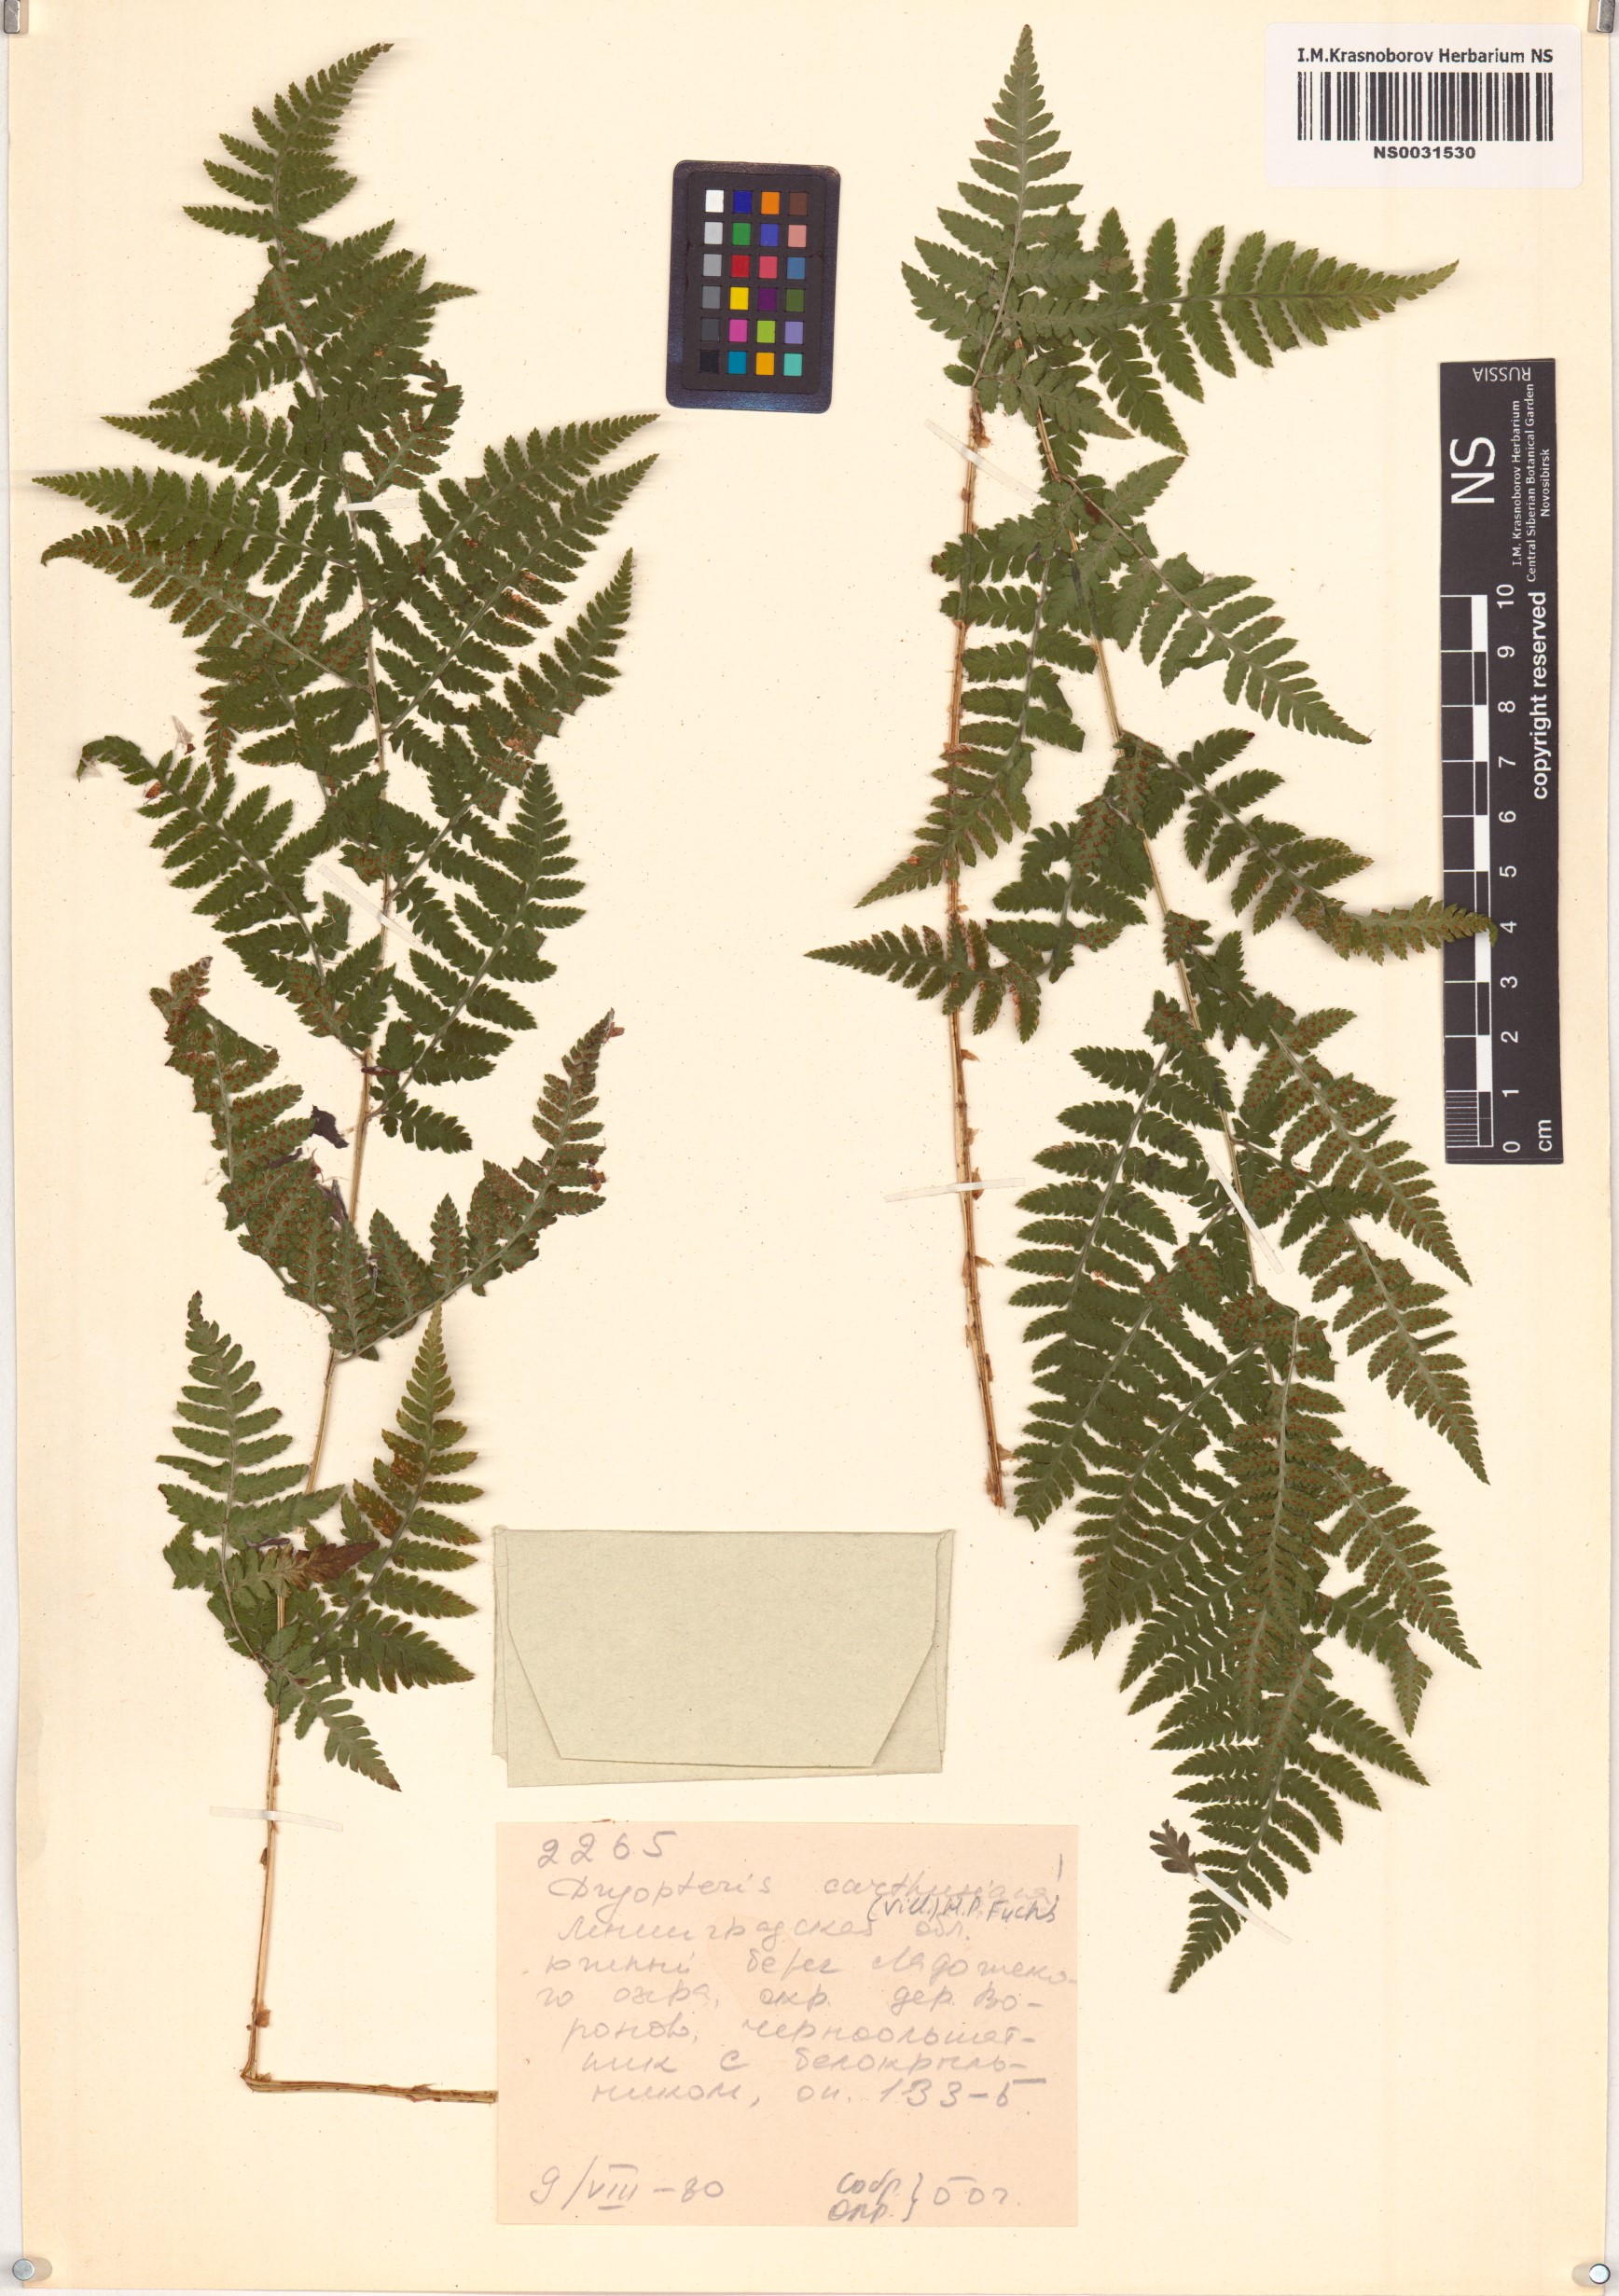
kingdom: Plantae
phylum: Tracheophyta
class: Polypodiopsida
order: Polypodiales
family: Dryopteridaceae
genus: Dryopteris
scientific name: Dryopteris carthusiana
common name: Narrow buckler-fern
